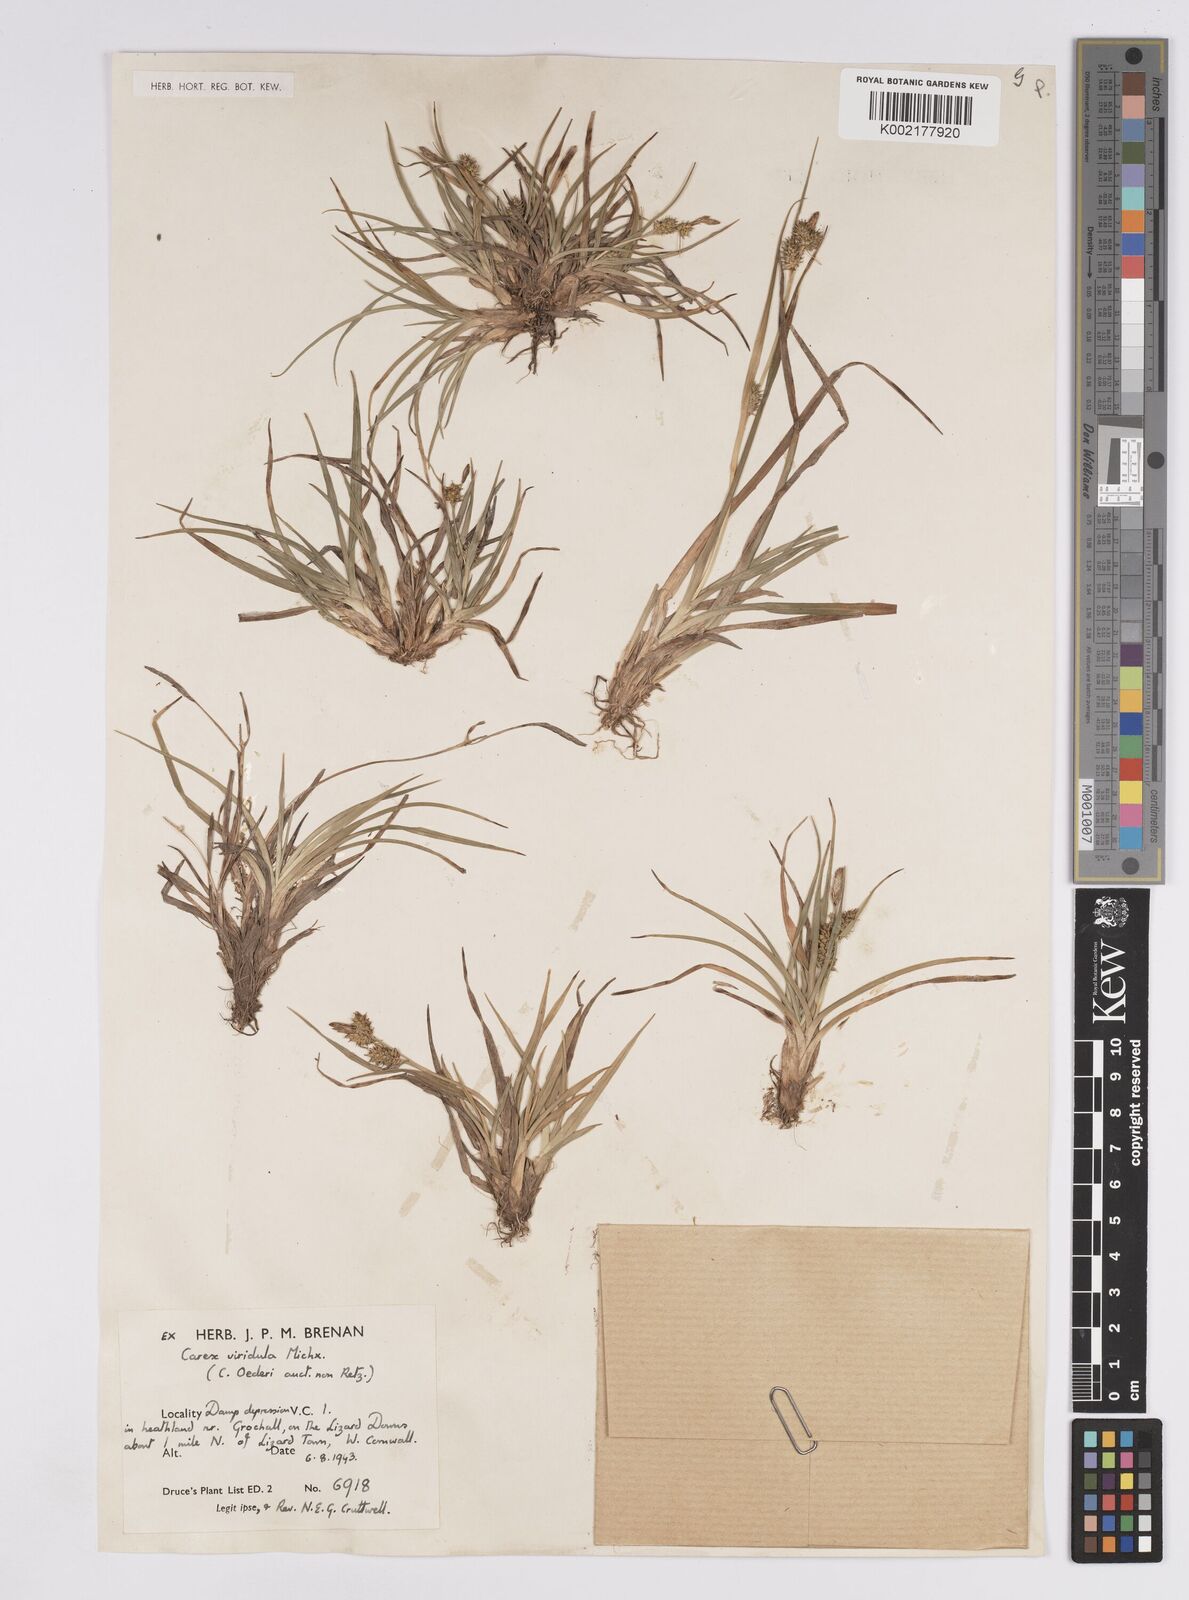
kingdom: Plantae
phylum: Tracheophyta
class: Liliopsida
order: Poales
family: Cyperaceae
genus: Carex
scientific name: Carex demissa
